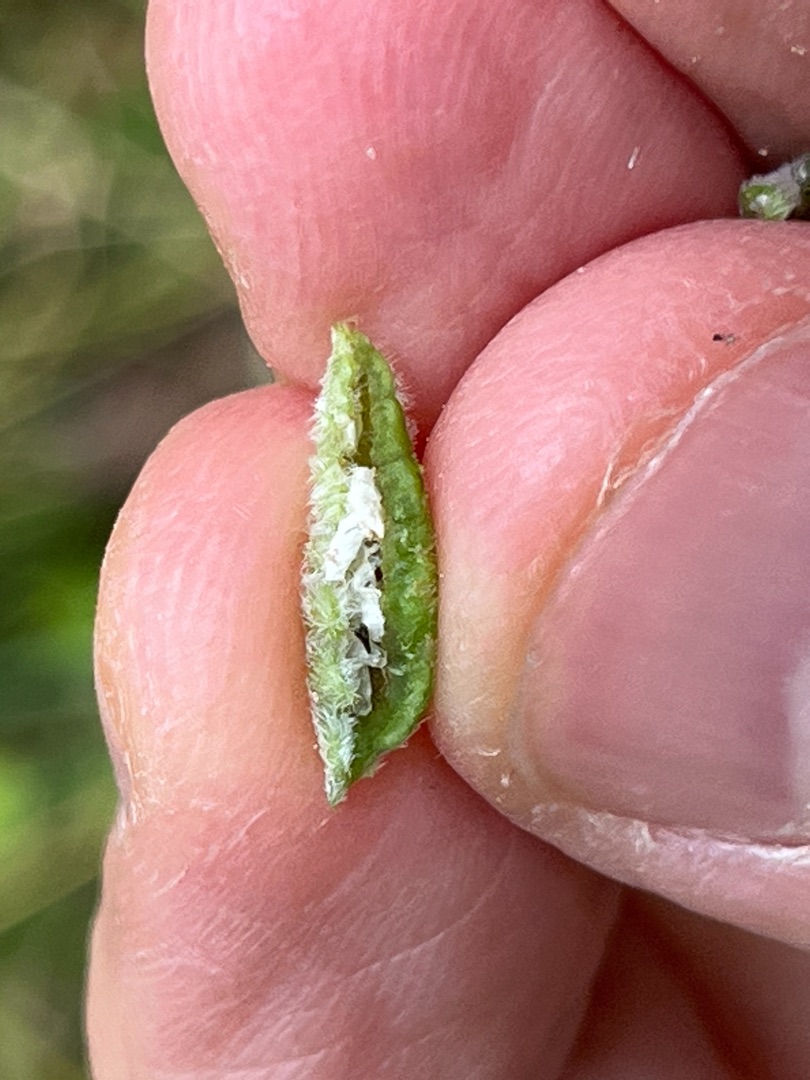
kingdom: Animalia
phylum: Arthropoda
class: Insecta
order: Diptera
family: Cecidomyiidae
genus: Dasineura
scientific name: Dasineura violahirtae
